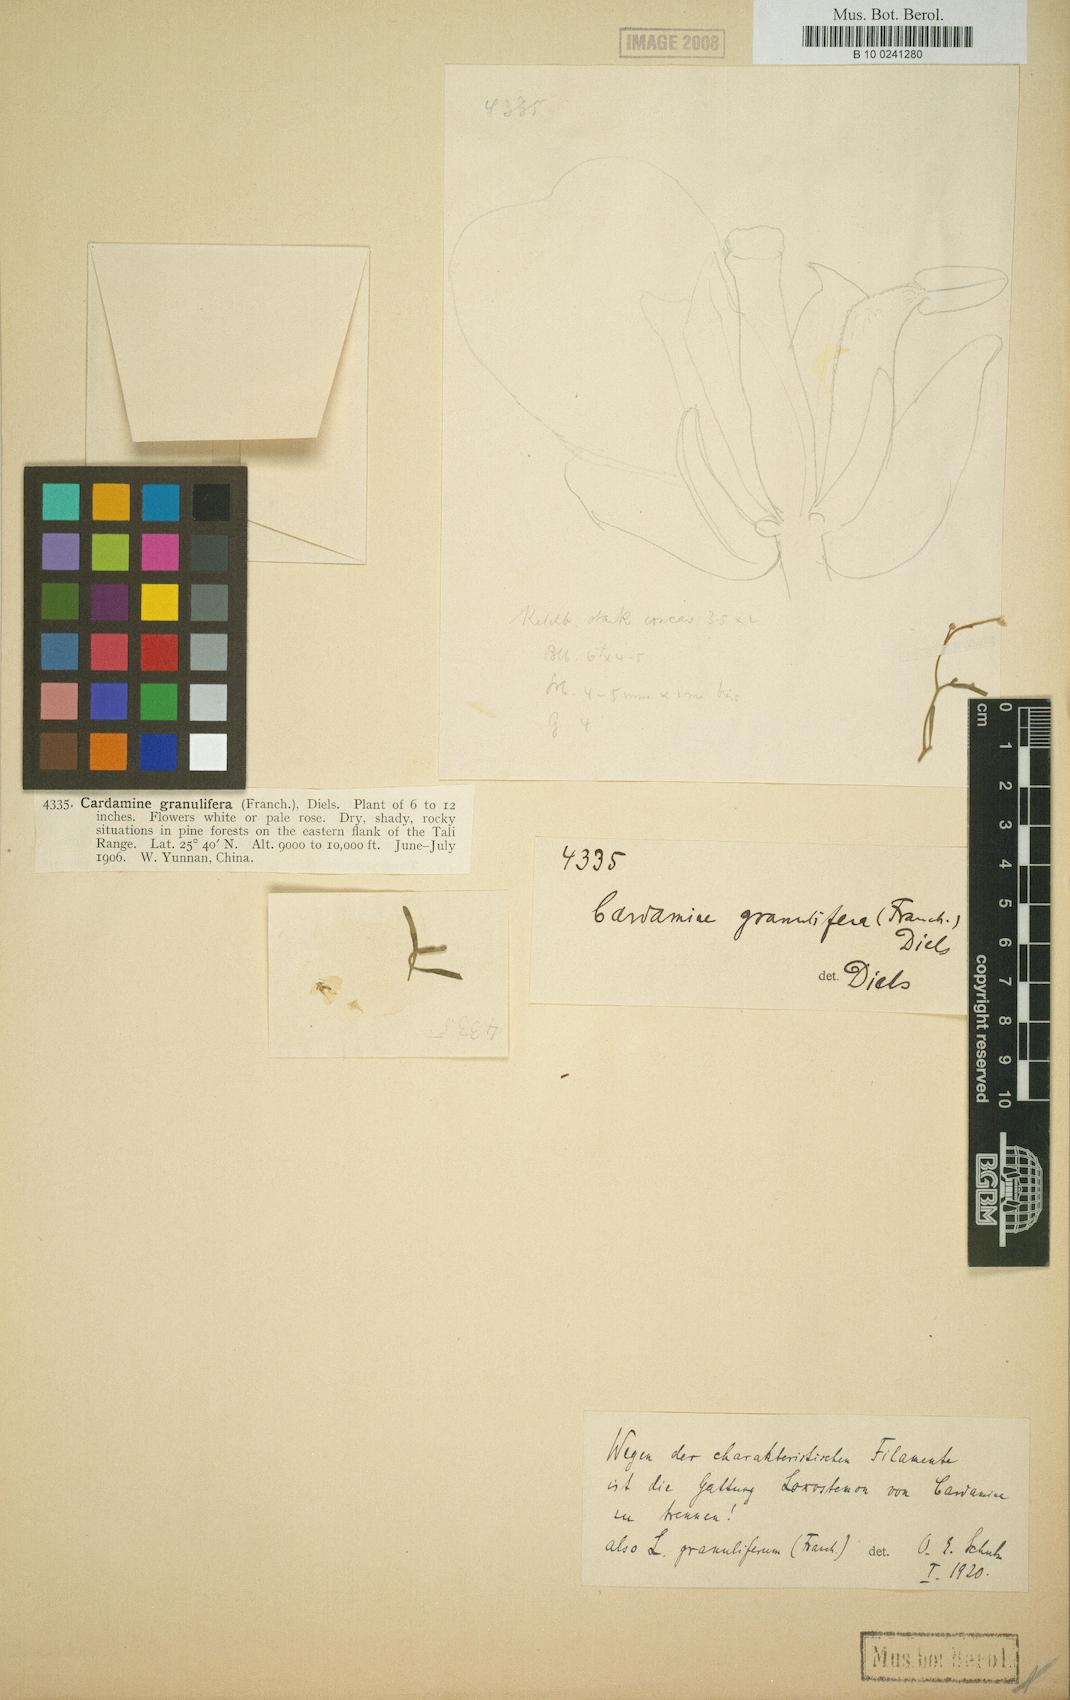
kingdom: Plantae
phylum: Tracheophyta
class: Magnoliopsida
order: Brassicales
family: Brassicaceae
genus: Cardamine
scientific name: Cardamine granulifera
